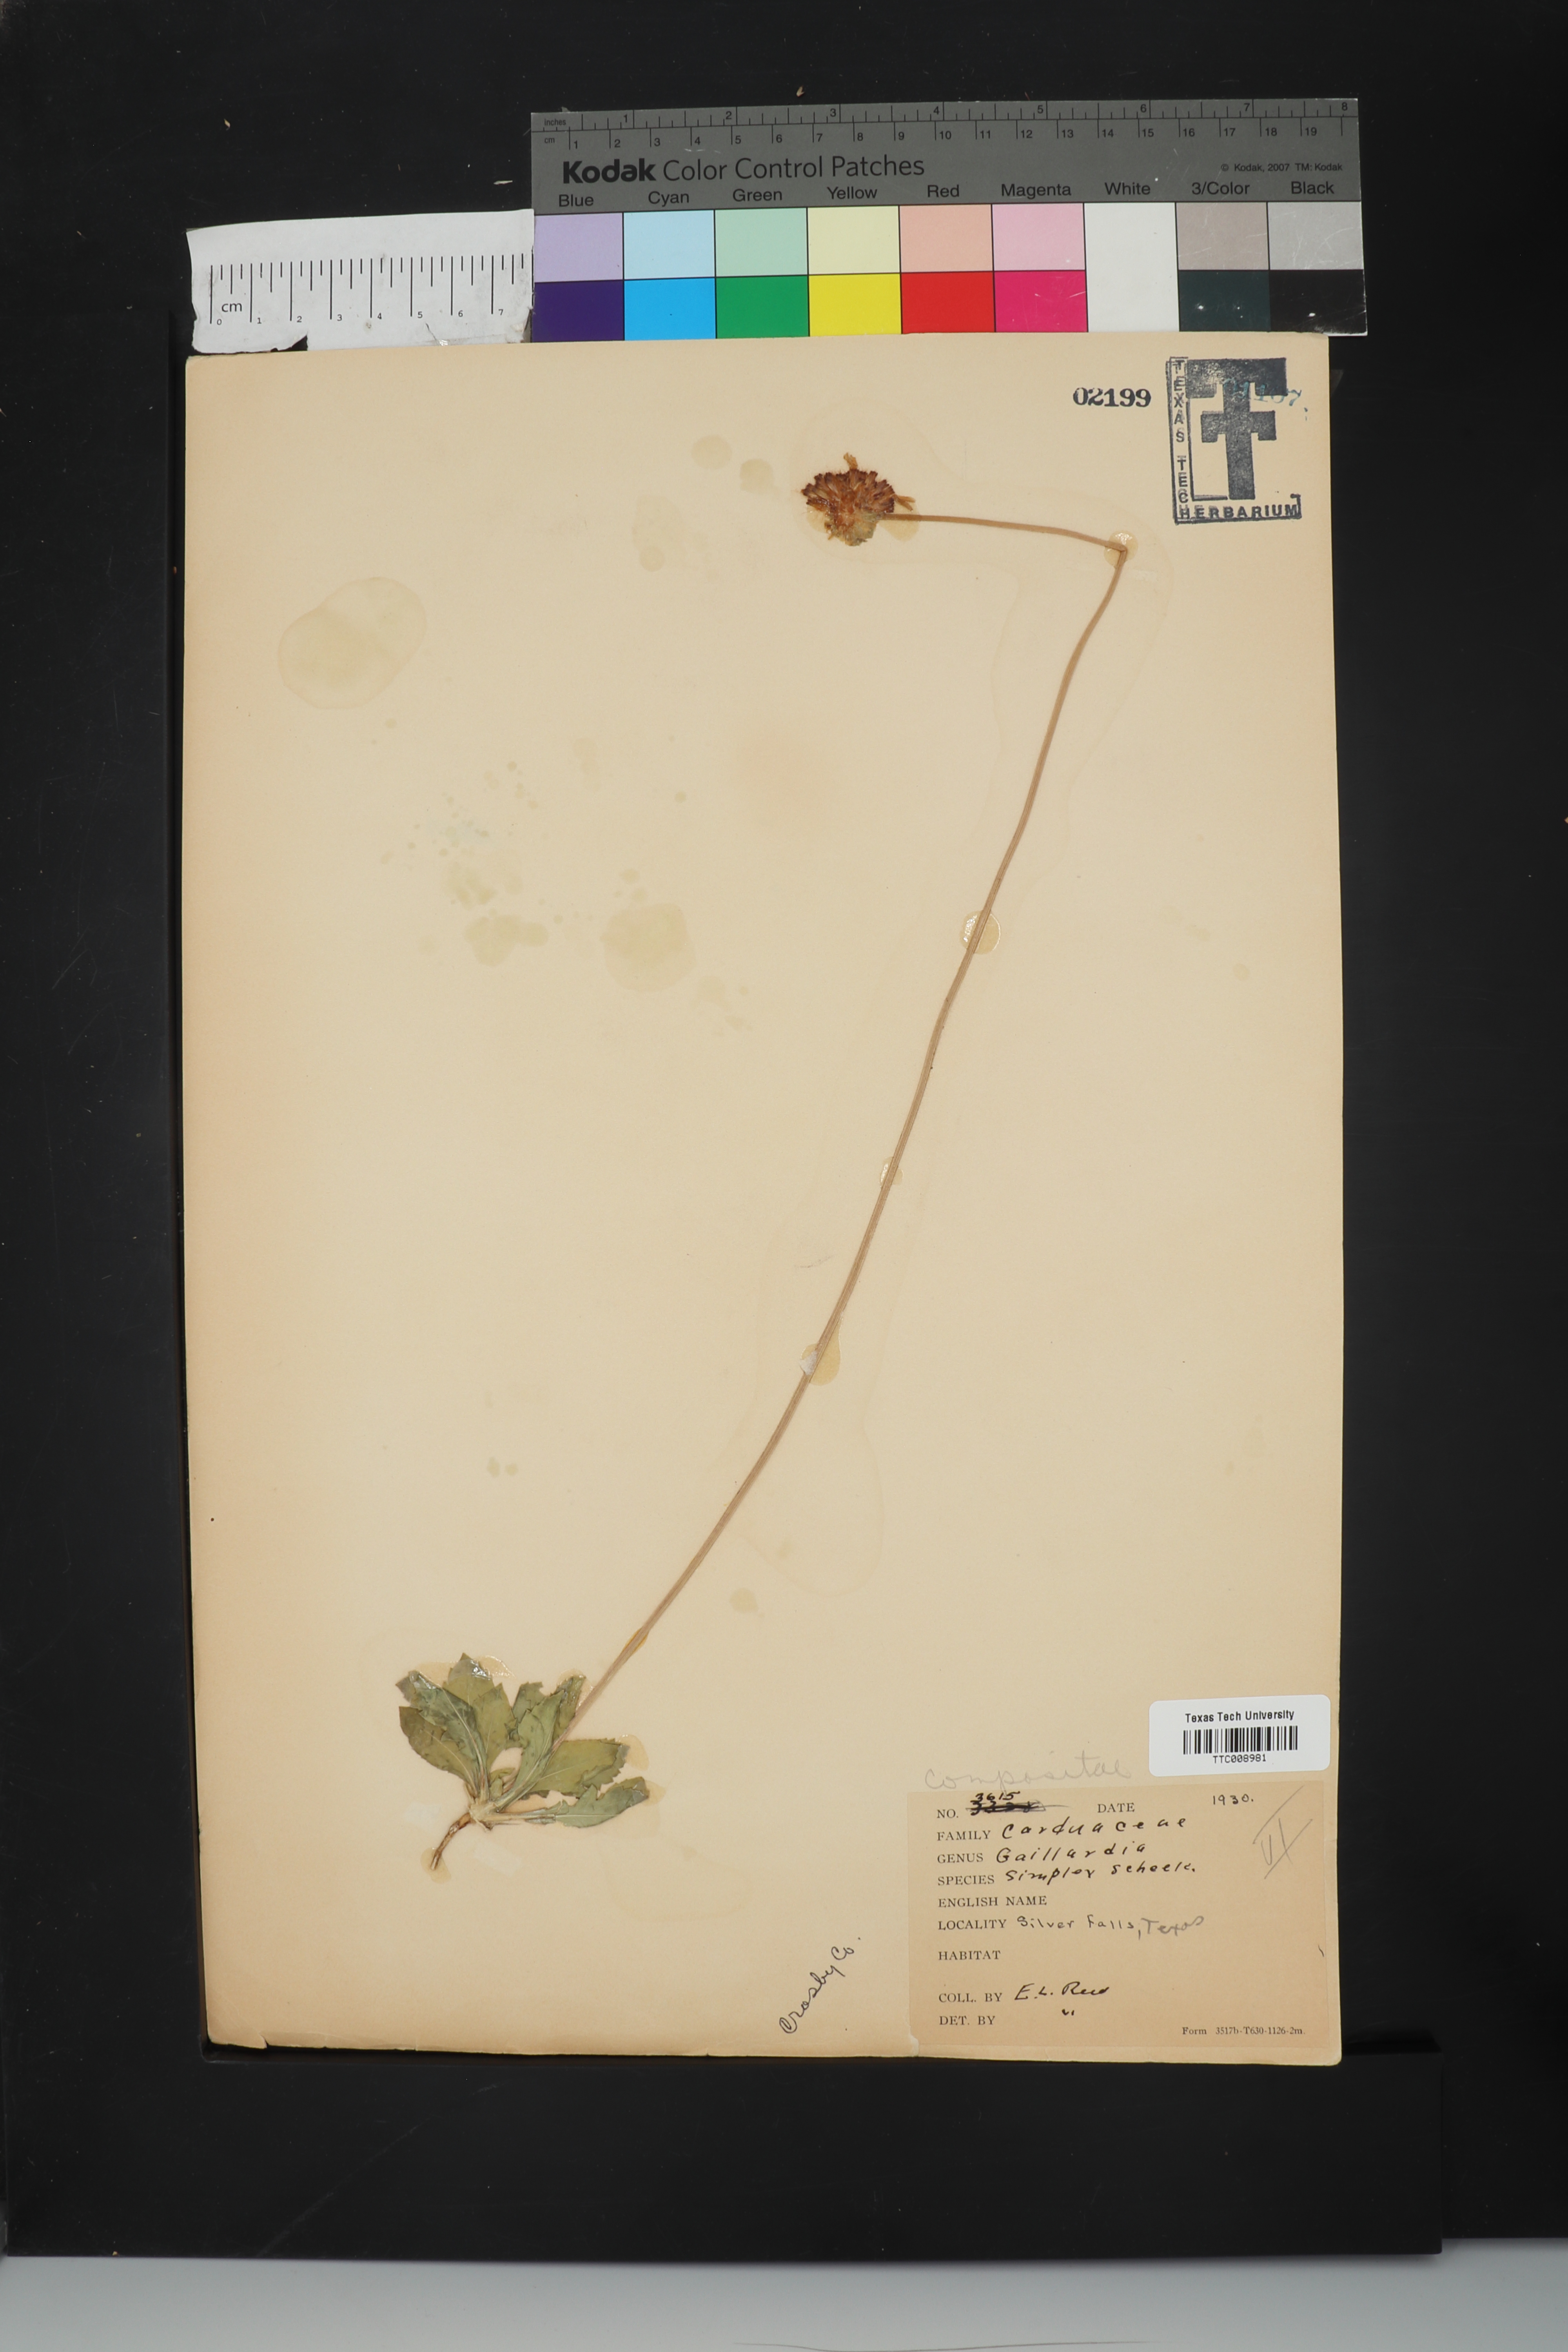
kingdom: Plantae
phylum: Tracheophyta
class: Magnoliopsida
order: Asterales
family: Asteraceae
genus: Gaillardia
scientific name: Gaillardia suavis
